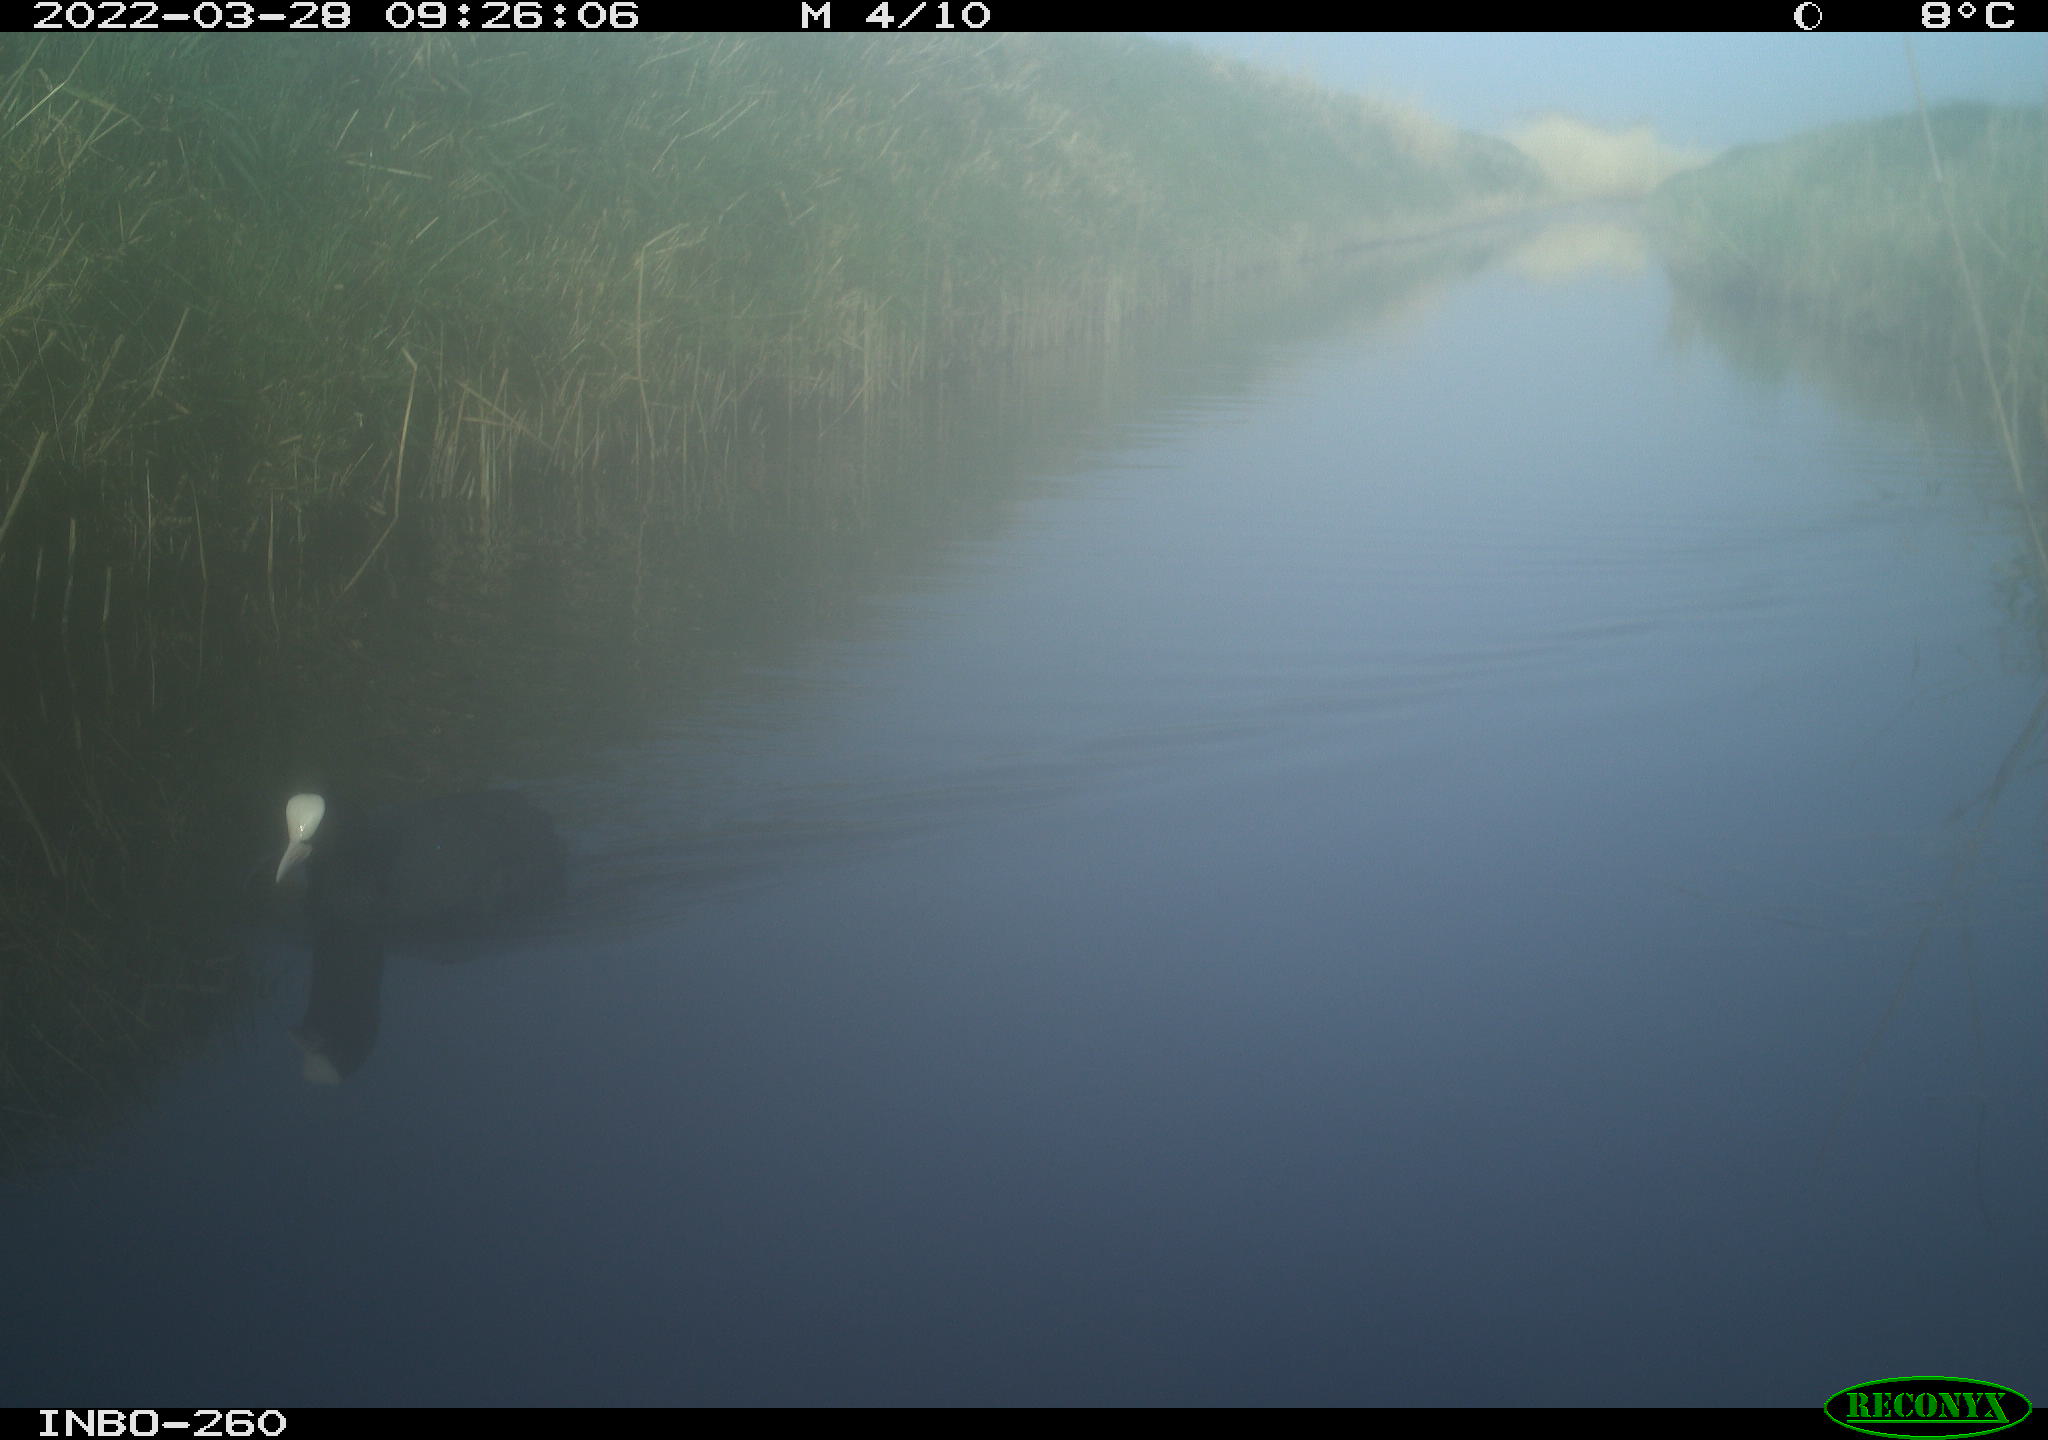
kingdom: Animalia
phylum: Chordata
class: Aves
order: Gruiformes
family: Rallidae
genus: Fulica
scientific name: Fulica atra
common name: Eurasian coot
